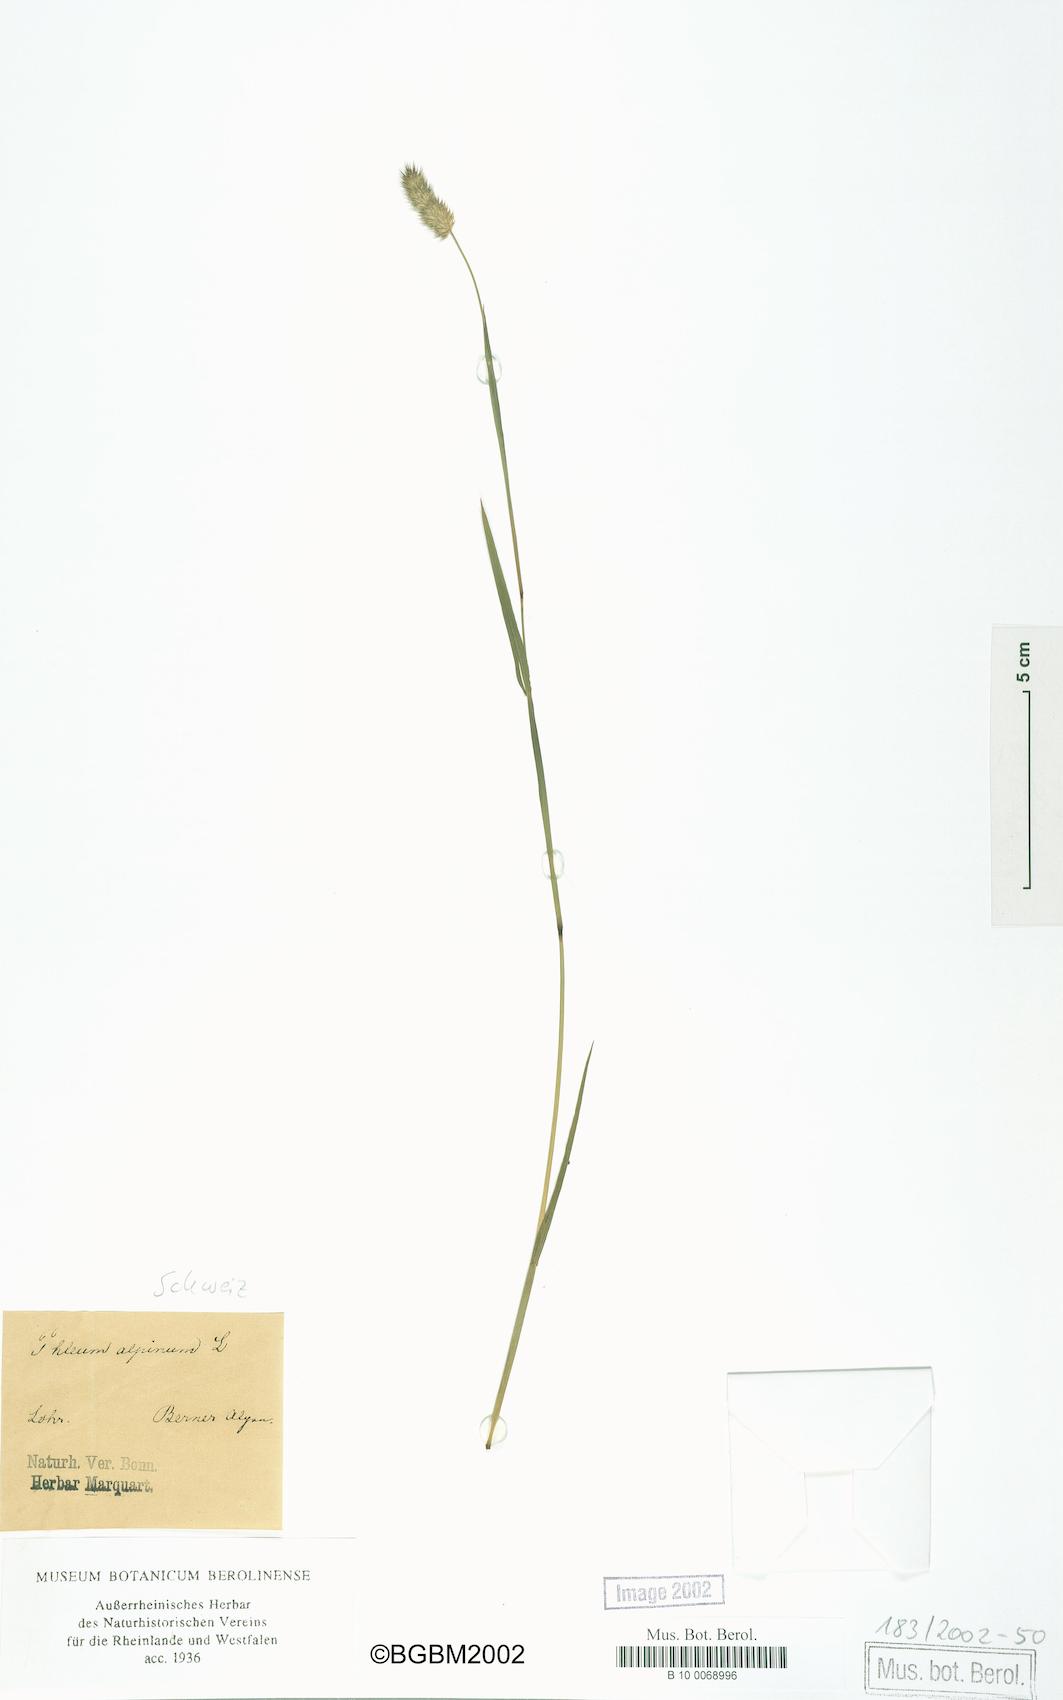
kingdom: Plantae
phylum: Tracheophyta
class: Liliopsida
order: Poales
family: Poaceae
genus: Phleum
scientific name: Phleum alpinum
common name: Alpine cat's-tail
